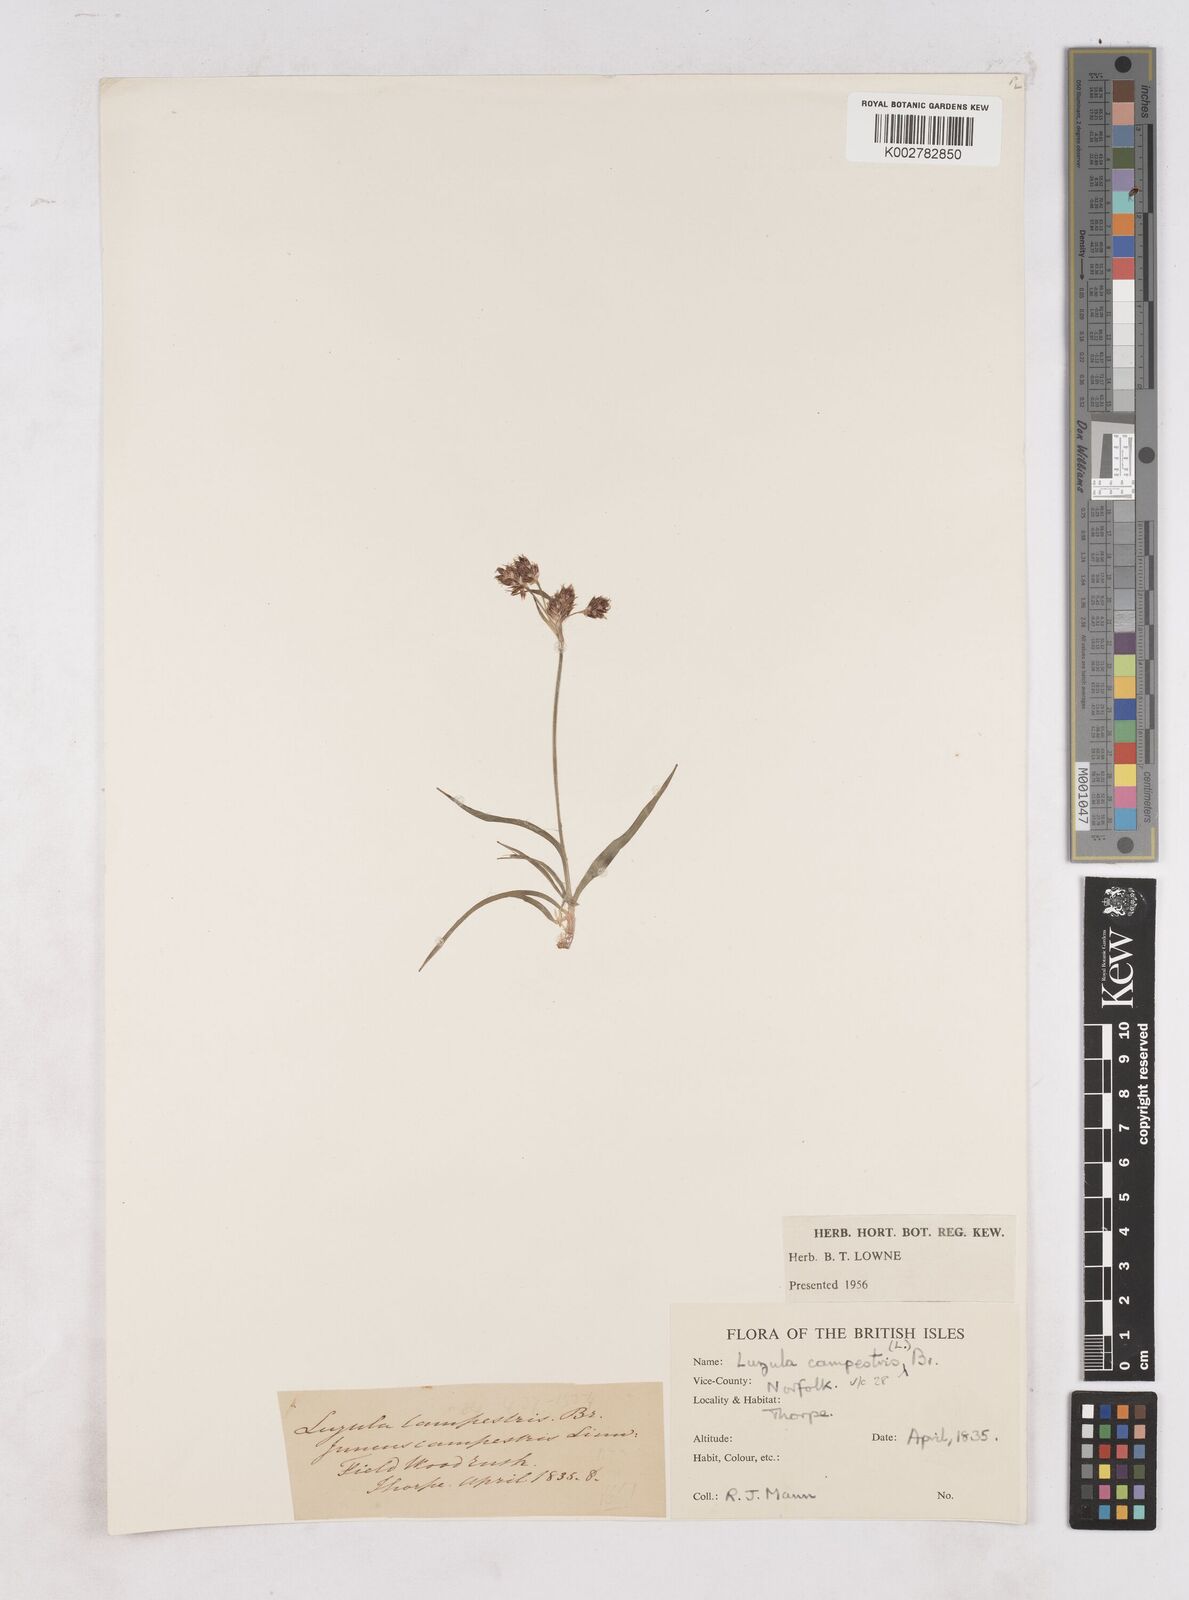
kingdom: Plantae
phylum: Tracheophyta
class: Liliopsida
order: Poales
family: Juncaceae
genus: Luzula
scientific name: Luzula campestris
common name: Field wood-rush
